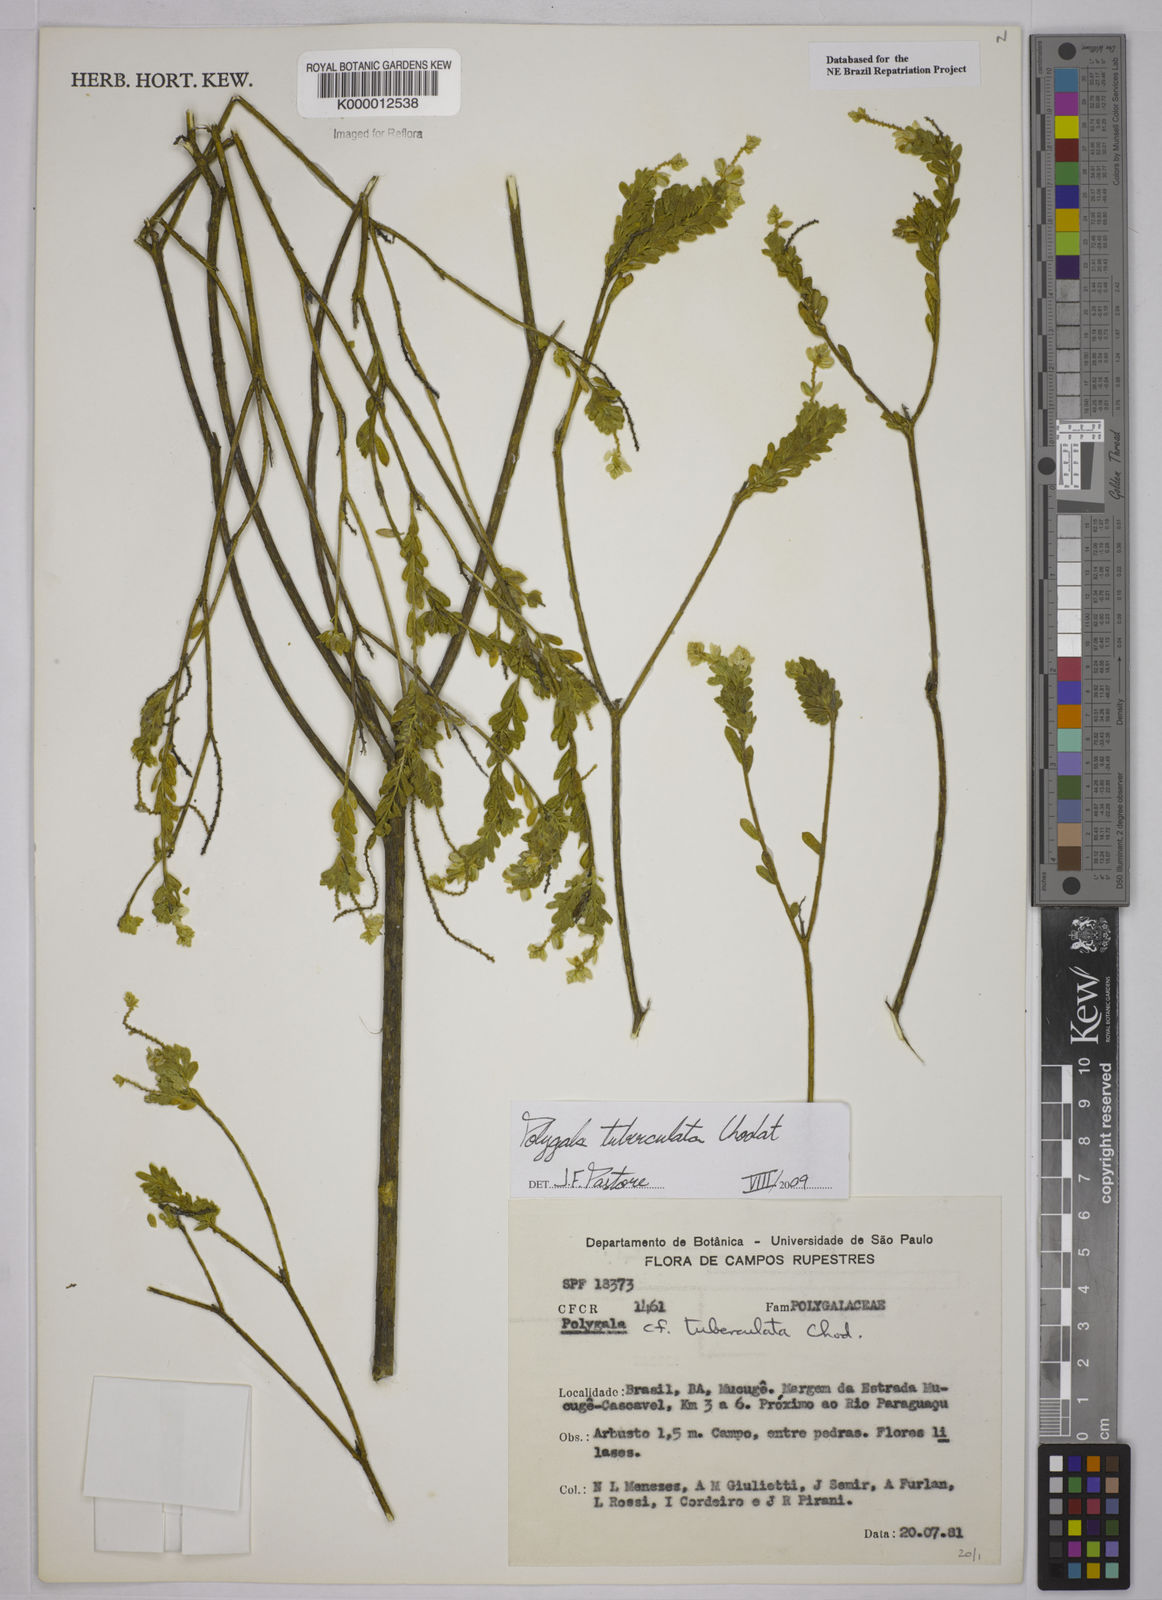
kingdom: Plantae
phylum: Tracheophyta
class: Magnoliopsida
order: Fabales
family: Polygalaceae
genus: Polygala
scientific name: Polygala tuberculata
